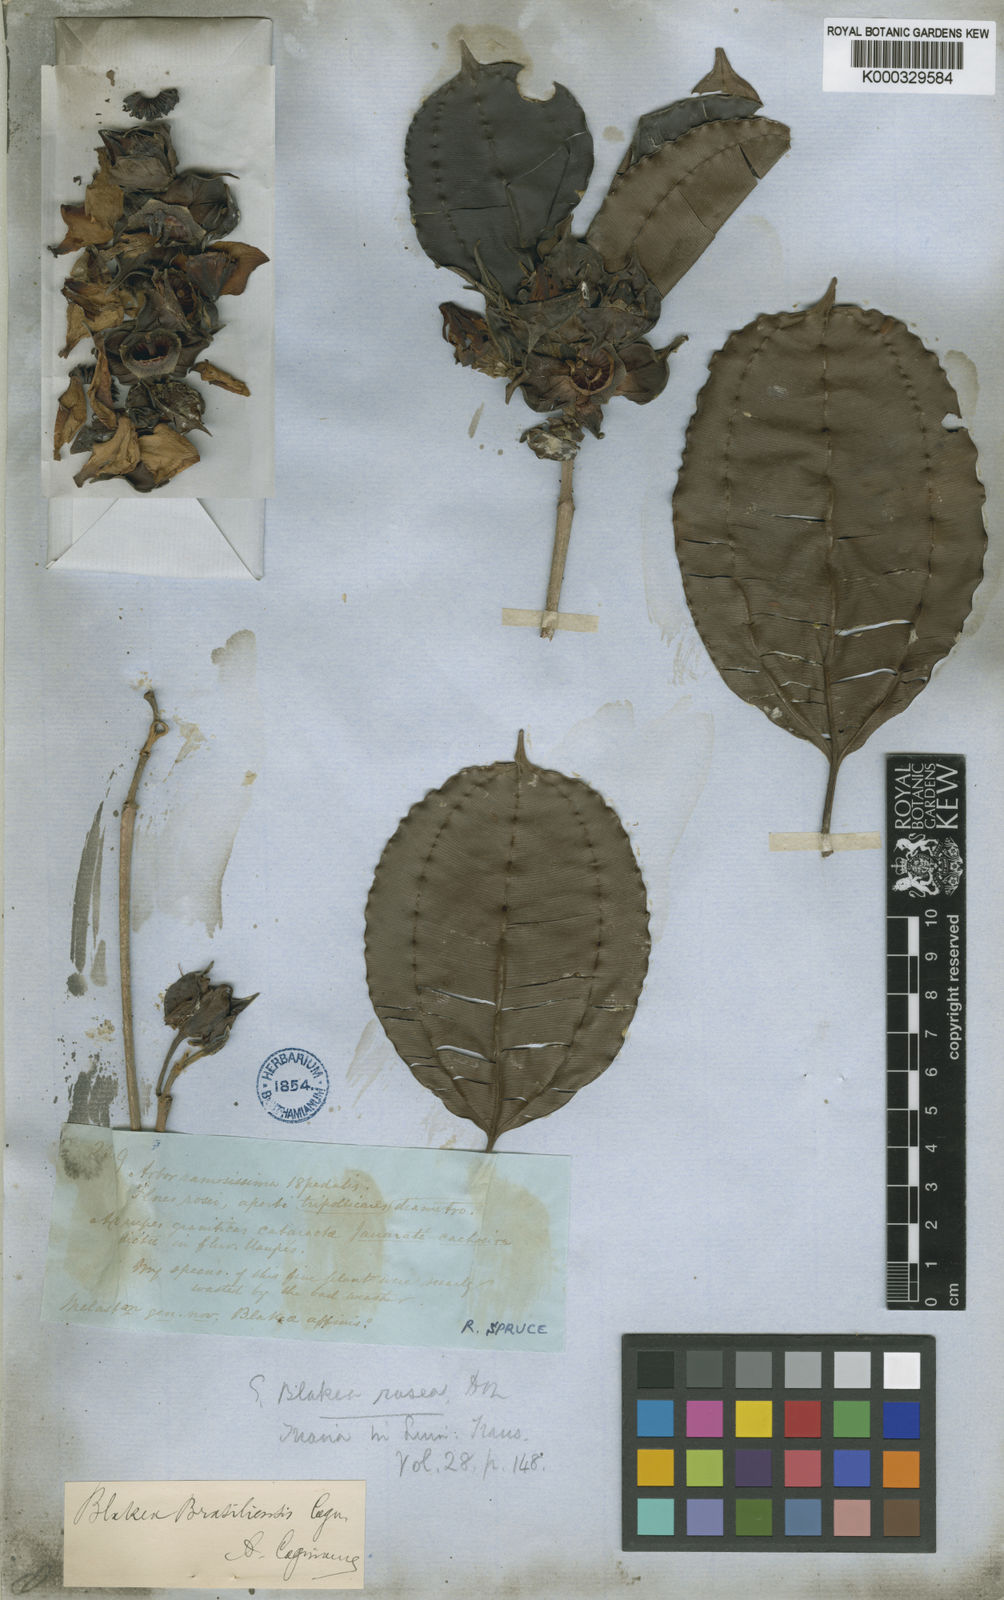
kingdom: Plantae
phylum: Tracheophyta
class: Magnoliopsida
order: Myrtales
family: Melastomataceae
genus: Blakea
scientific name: Blakea brasiliensis
